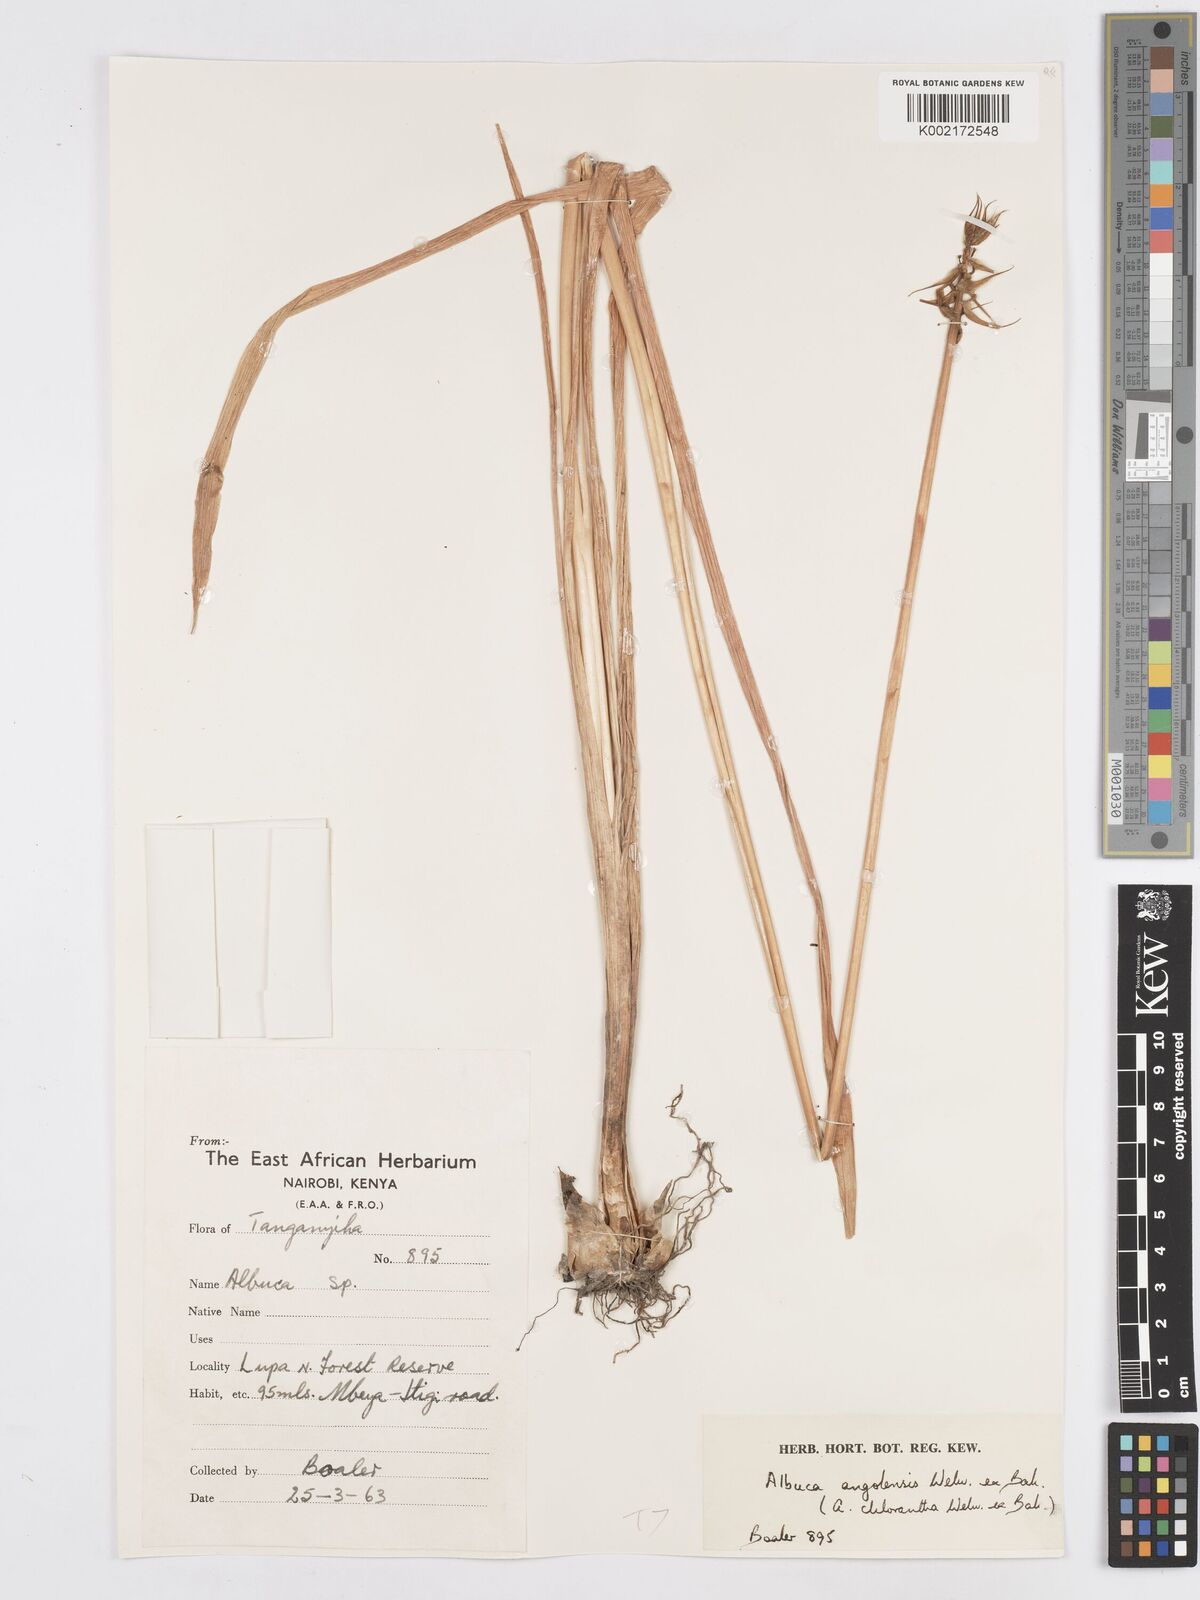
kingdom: Plantae
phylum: Tracheophyta
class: Liliopsida
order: Asparagales
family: Asparagaceae
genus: Albuca
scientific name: Albuca abyssinica
